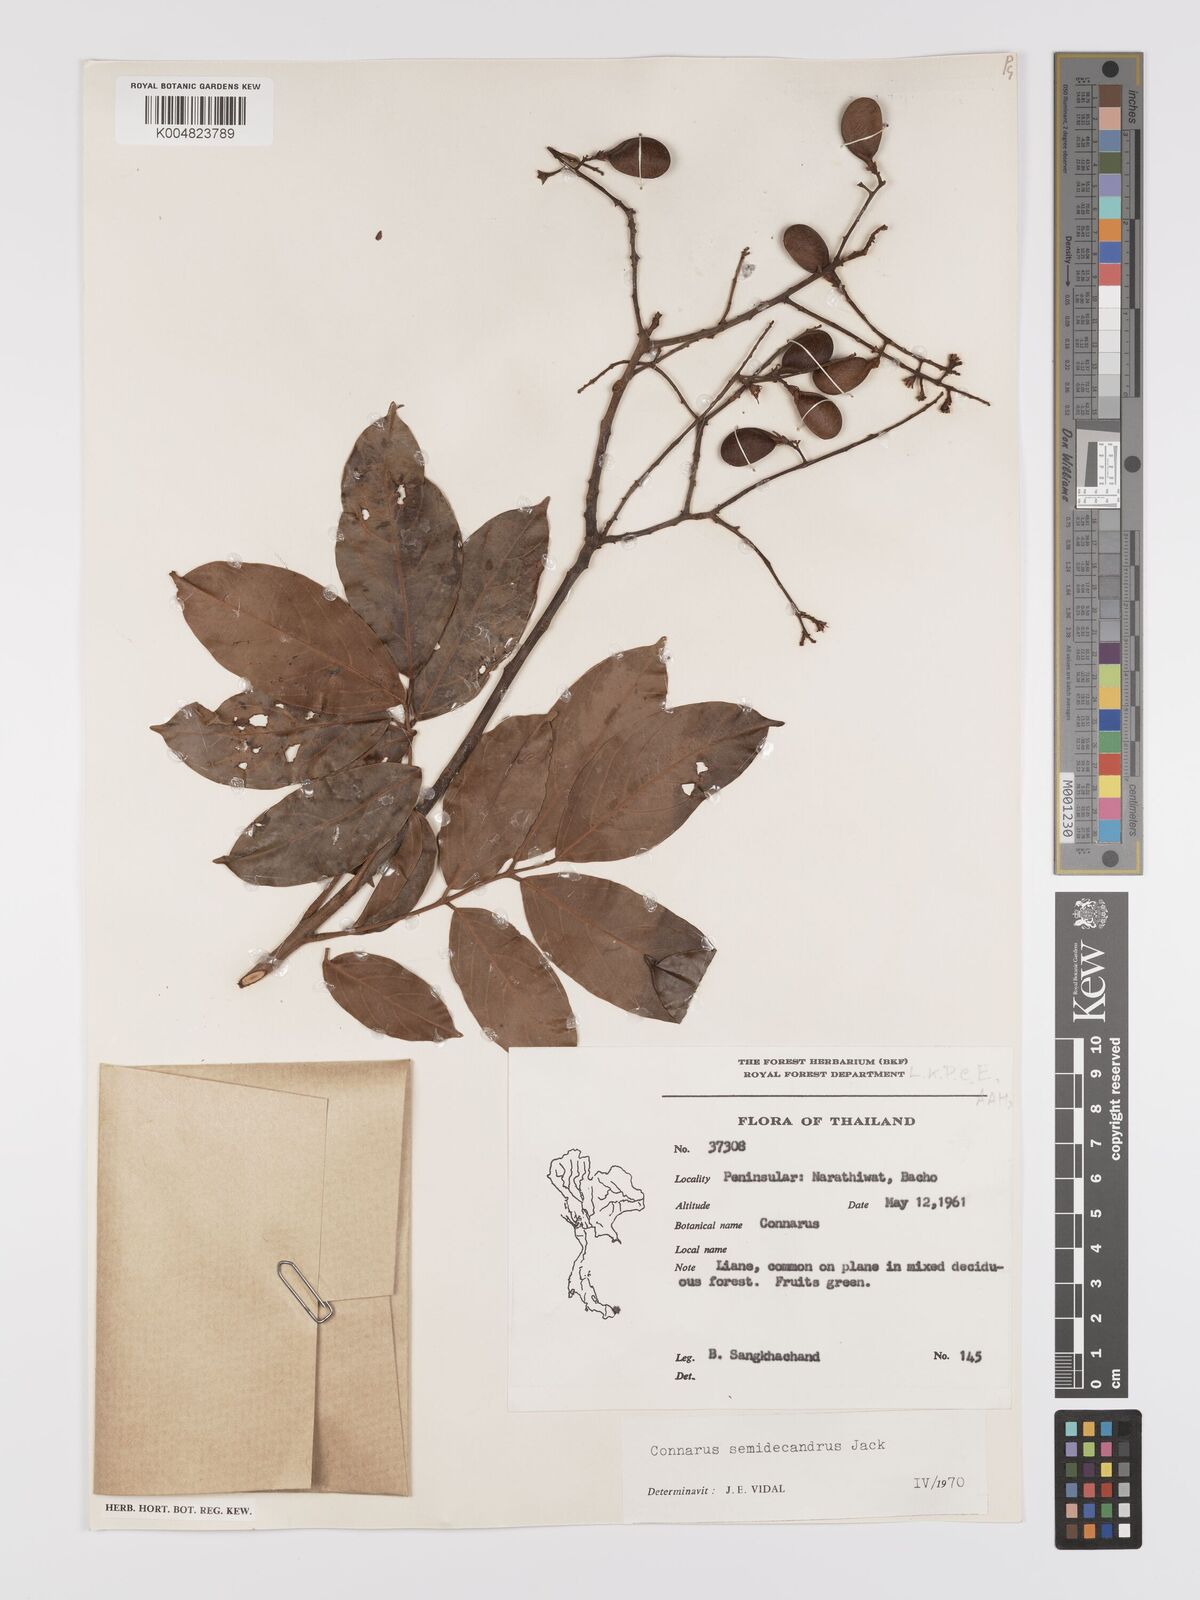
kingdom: Plantae
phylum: Tracheophyta
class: Magnoliopsida
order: Oxalidales
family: Connaraceae
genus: Connarus
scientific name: Connarus semidecandrus
